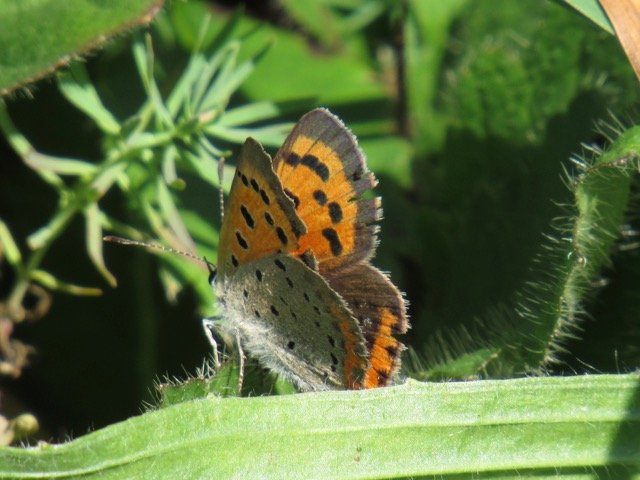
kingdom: Animalia
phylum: Arthropoda
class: Insecta
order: Lepidoptera
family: Lycaenidae
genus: Lycaena
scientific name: Lycaena phlaeas
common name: American Copper
